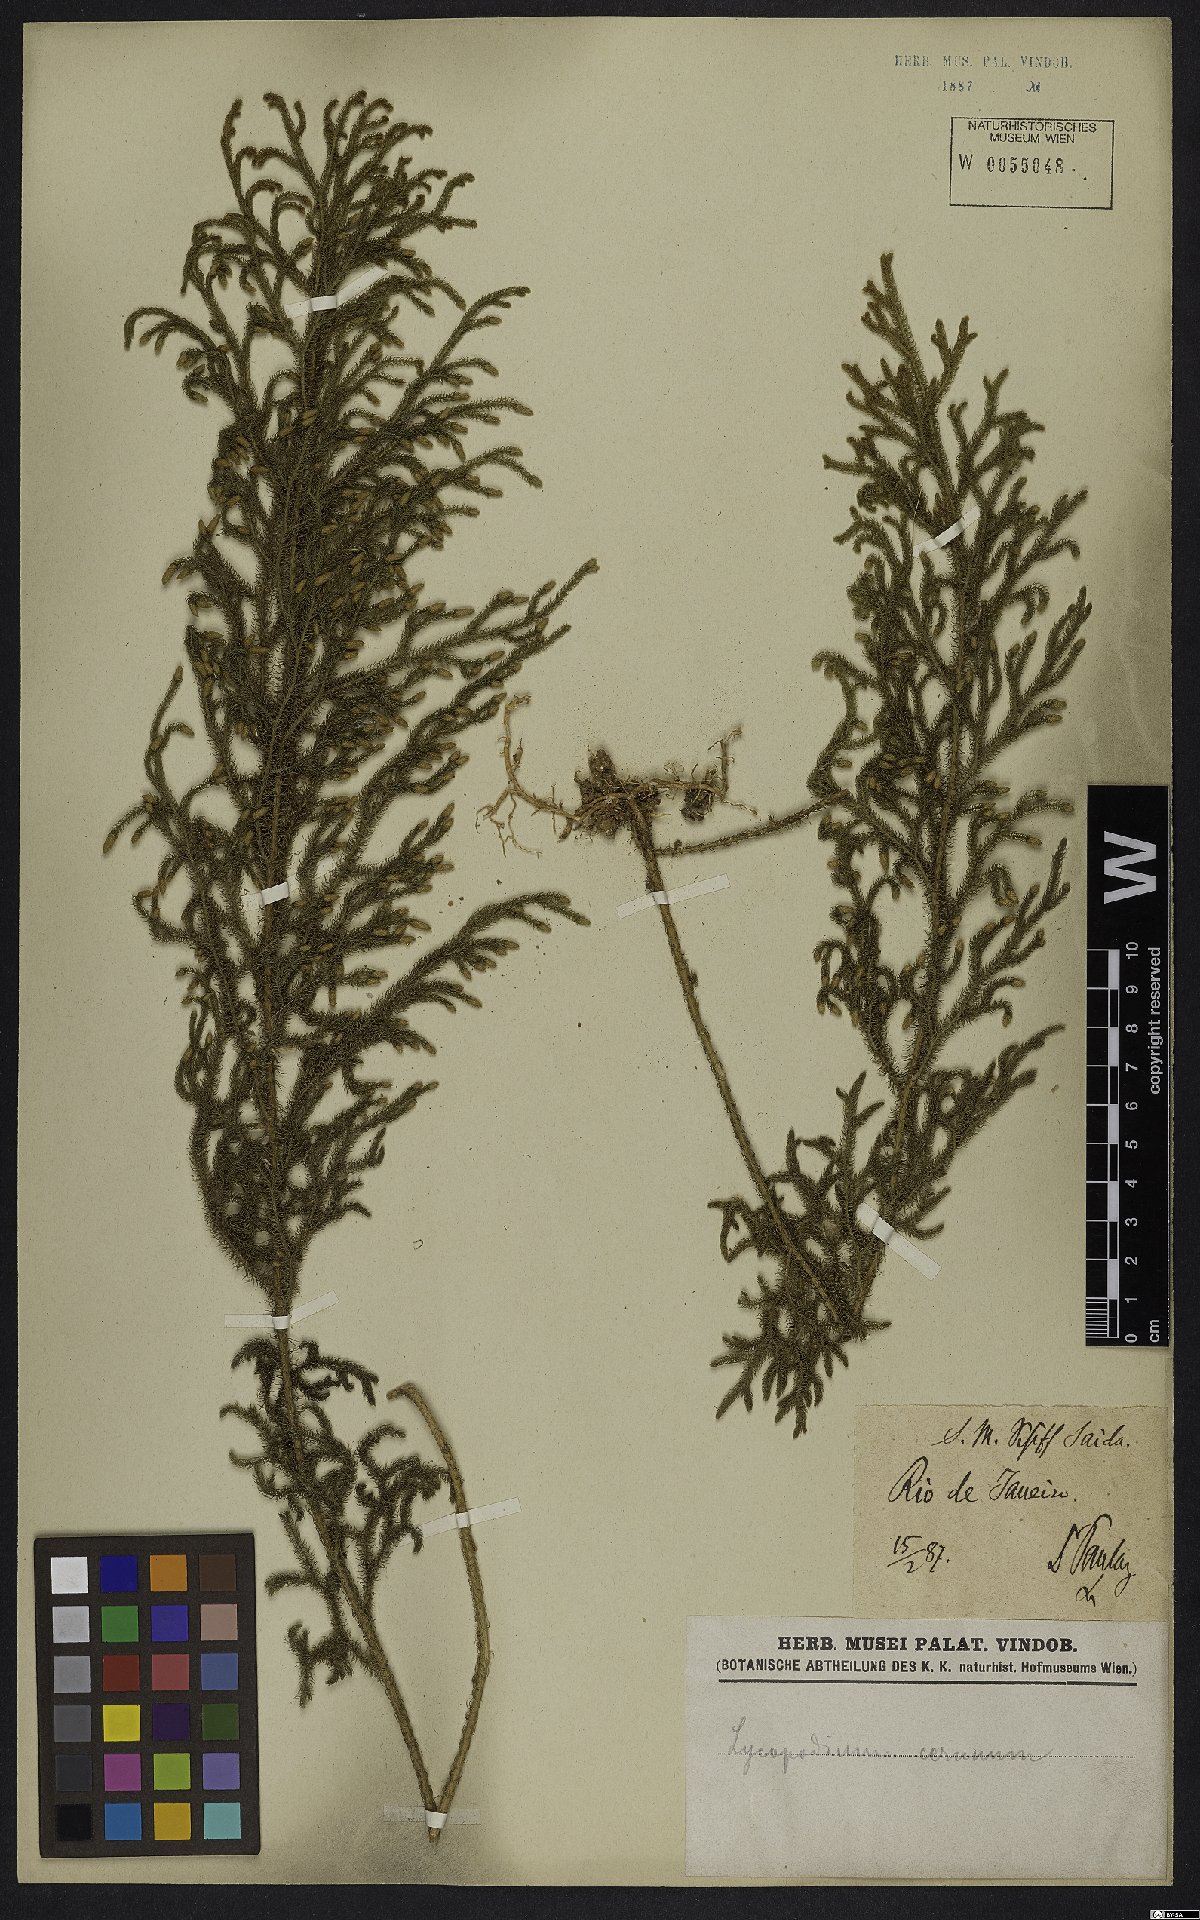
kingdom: Plantae
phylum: Tracheophyta
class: Lycopodiopsida
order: Lycopodiales
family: Lycopodiaceae
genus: Palhinhaea
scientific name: Palhinhaea cernua
